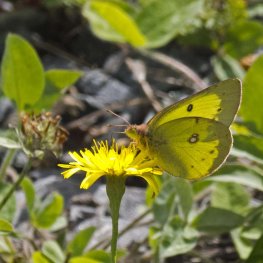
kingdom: Animalia
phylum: Arthropoda
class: Insecta
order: Lepidoptera
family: Pieridae
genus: Colias
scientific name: Colias philodice
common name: Clouded Sulphur
